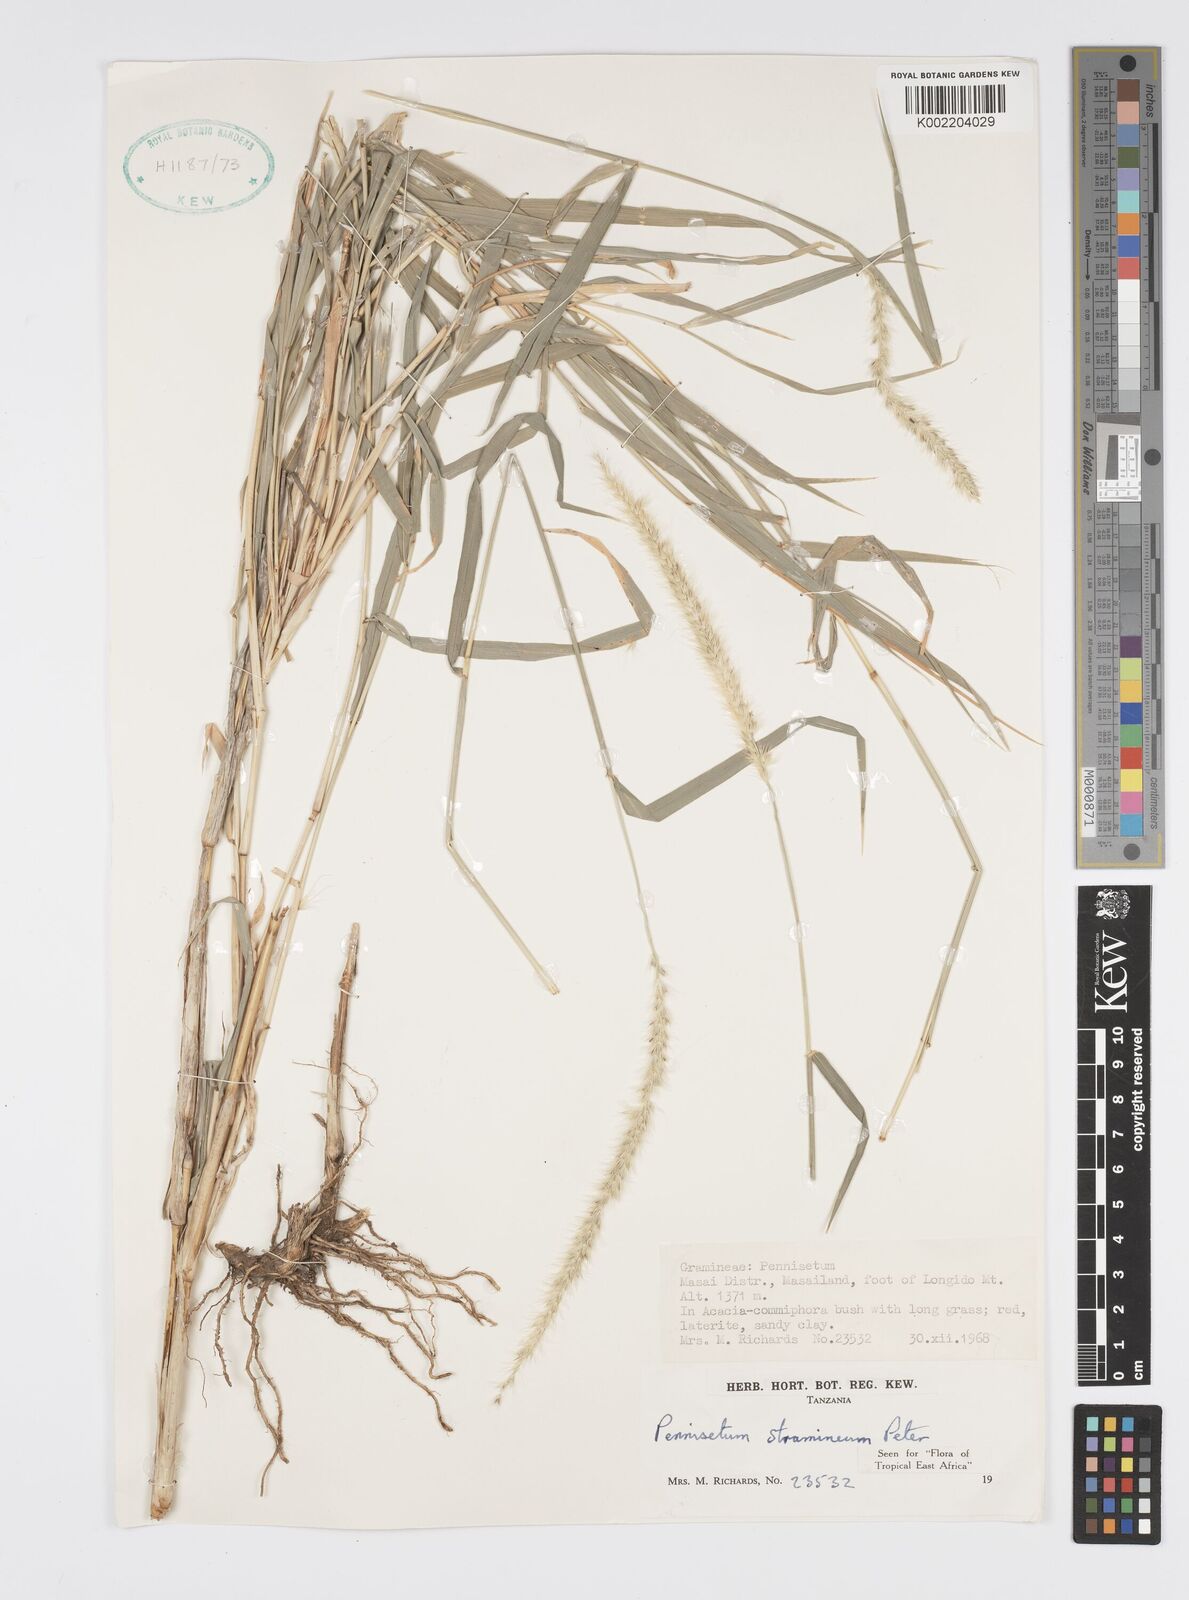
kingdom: Plantae
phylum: Tracheophyta
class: Liliopsida
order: Poales
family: Poaceae
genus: Cenchrus
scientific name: Cenchrus stramineus
